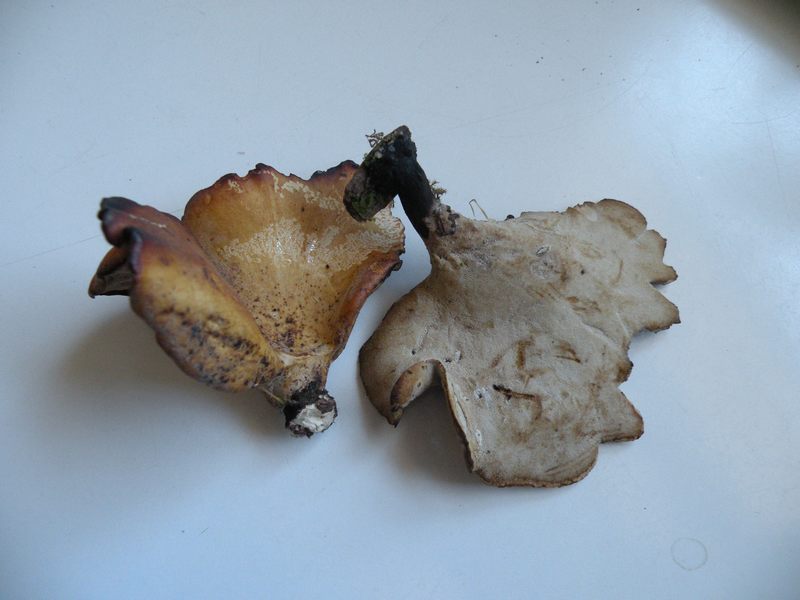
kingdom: Fungi
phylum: Basidiomycota
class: Agaricomycetes
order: Polyporales
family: Polyporaceae
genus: Cerioporus
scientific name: Cerioporus varius
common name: foranderlig stilkporesvamp
